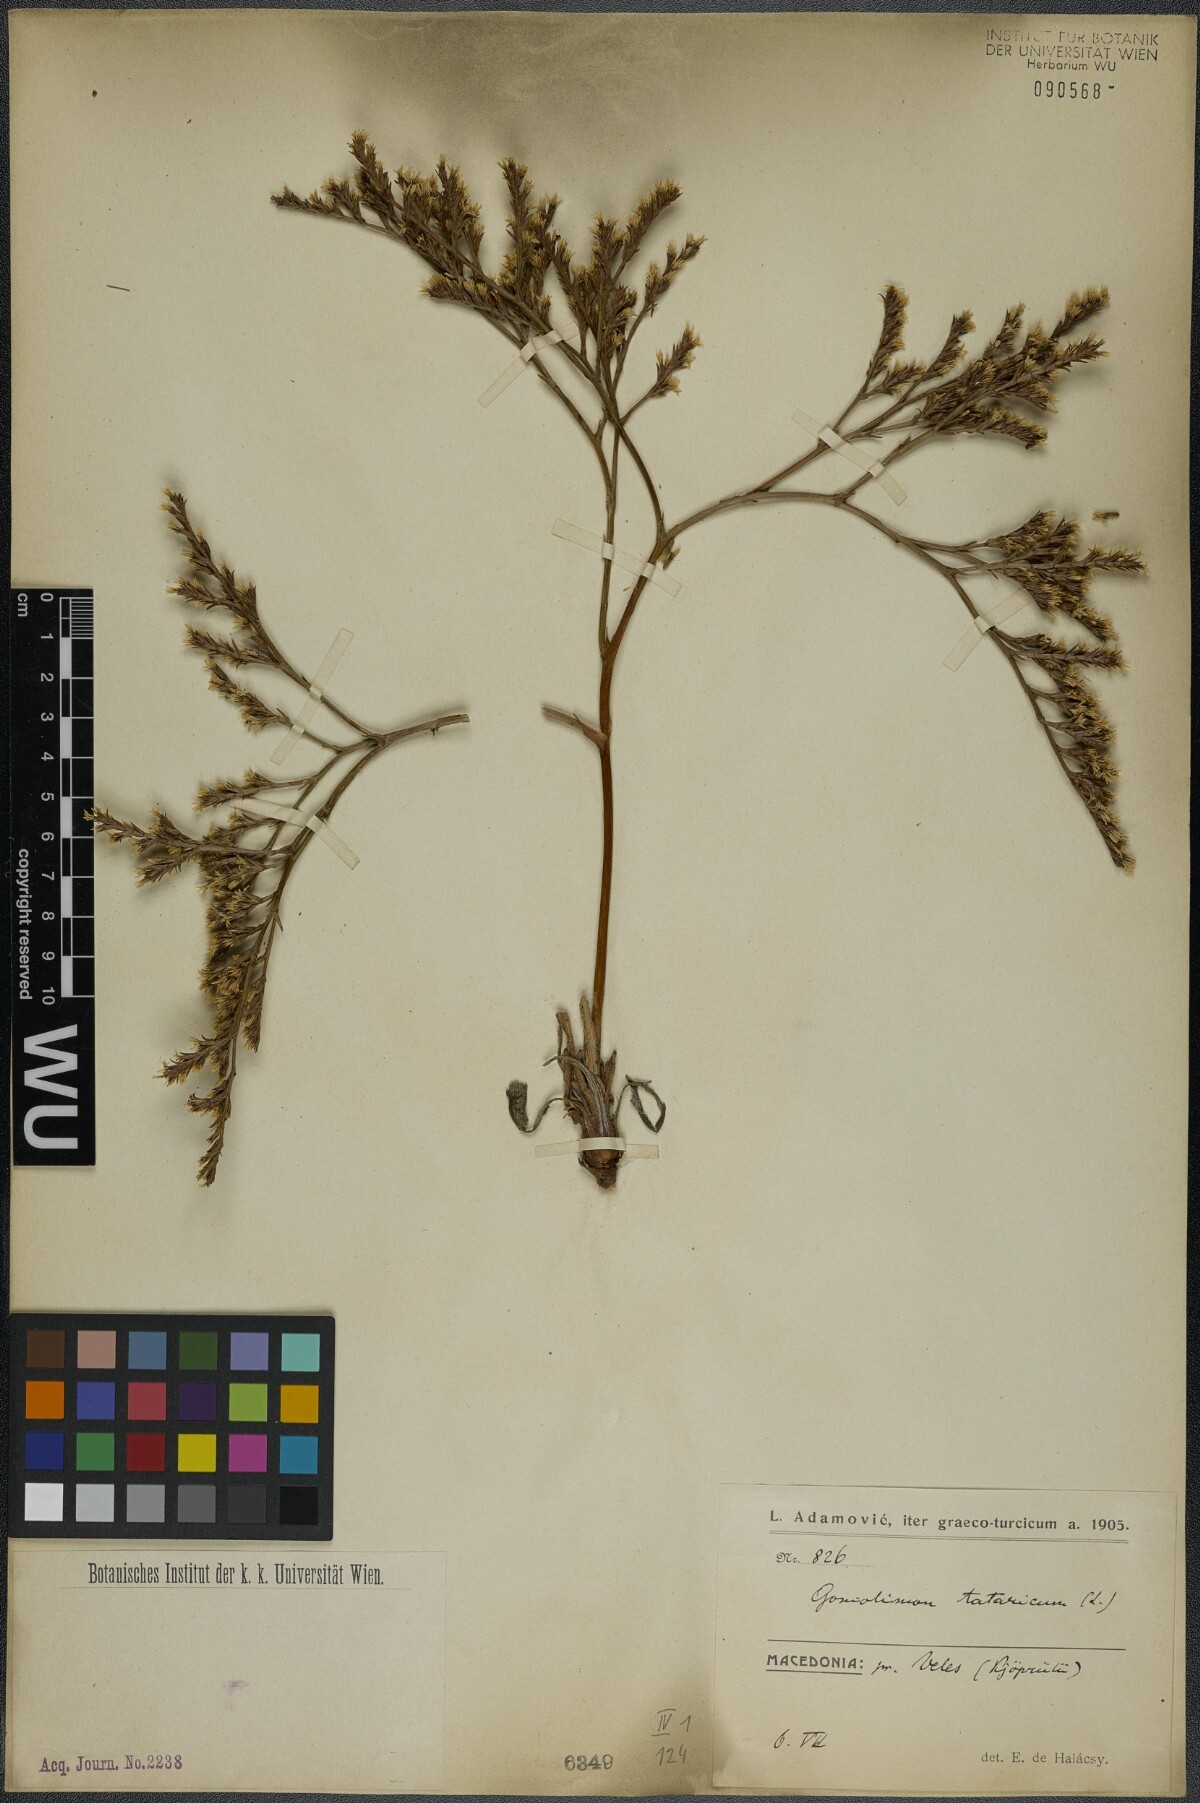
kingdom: Plantae
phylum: Tracheophyta
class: Magnoliopsida
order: Caryophyllales
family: Plumbaginaceae
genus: Goniolimon
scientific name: Goniolimon tataricum
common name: Statice
